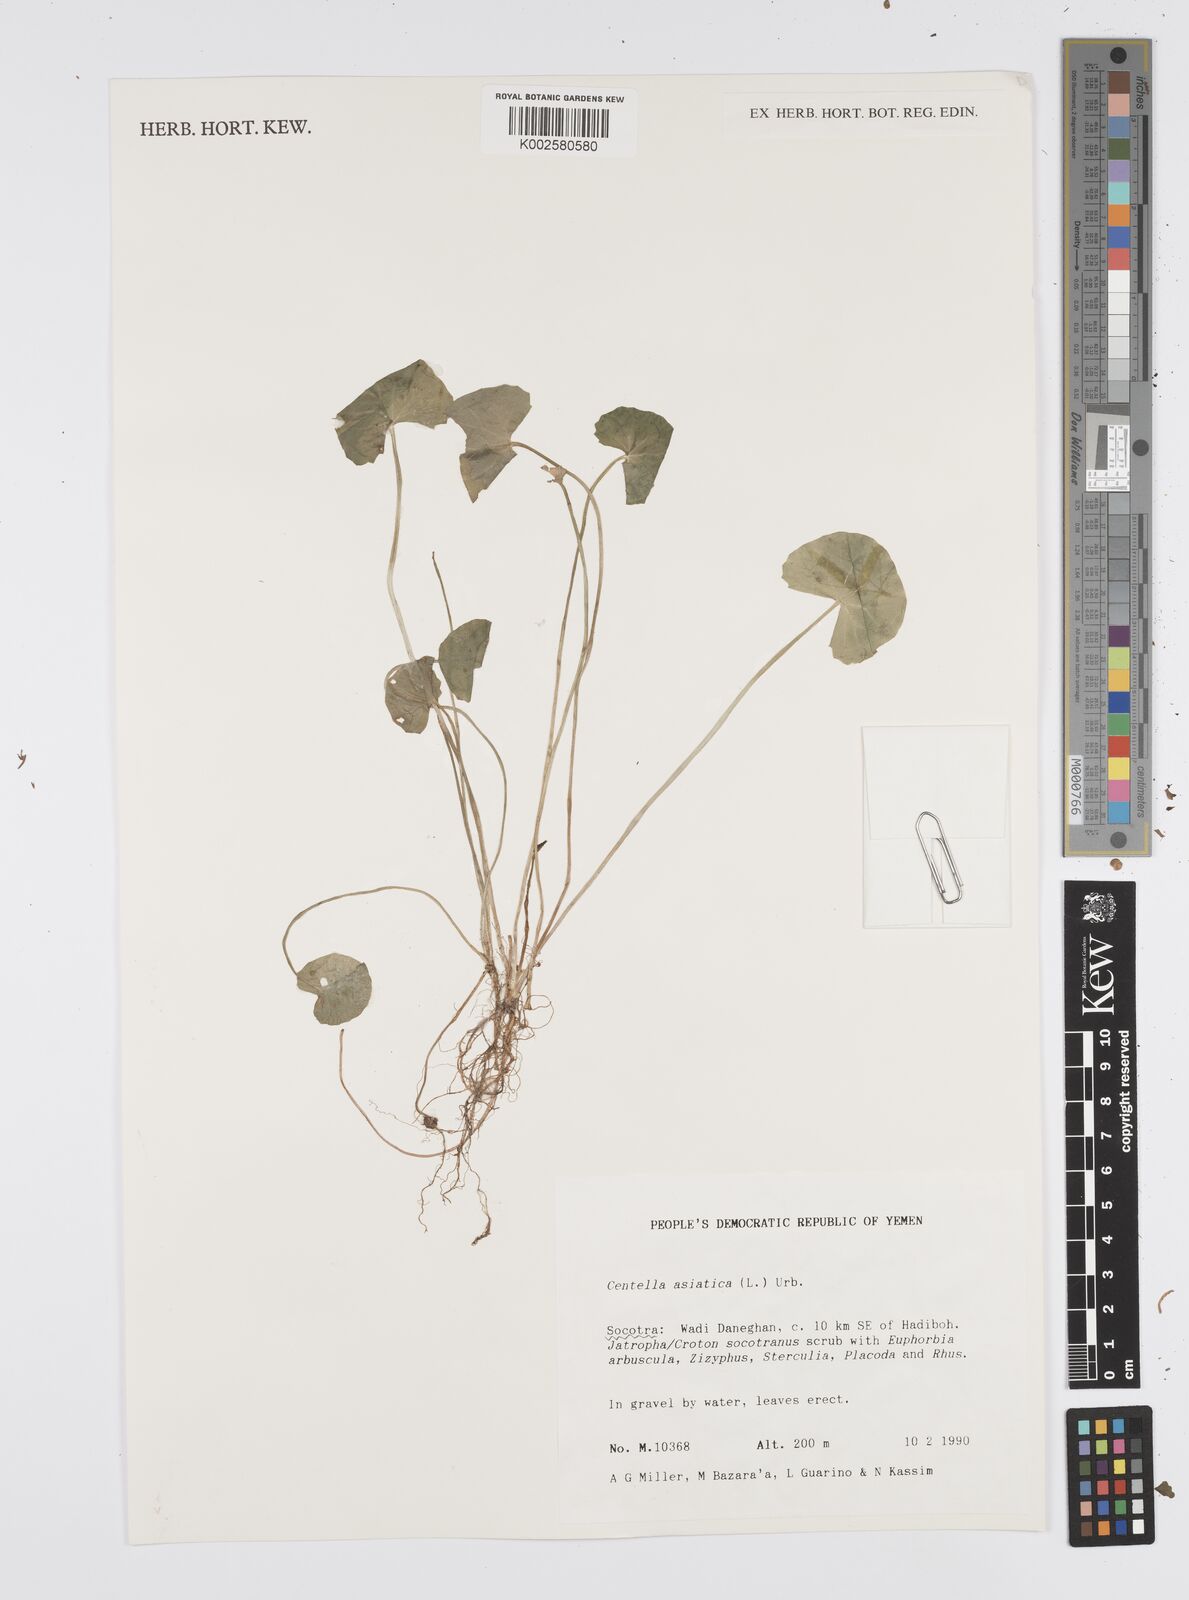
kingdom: Plantae
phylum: Tracheophyta
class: Magnoliopsida
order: Apiales
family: Apiaceae
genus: Centella
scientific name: Centella asiatica
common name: Spadeleaf
